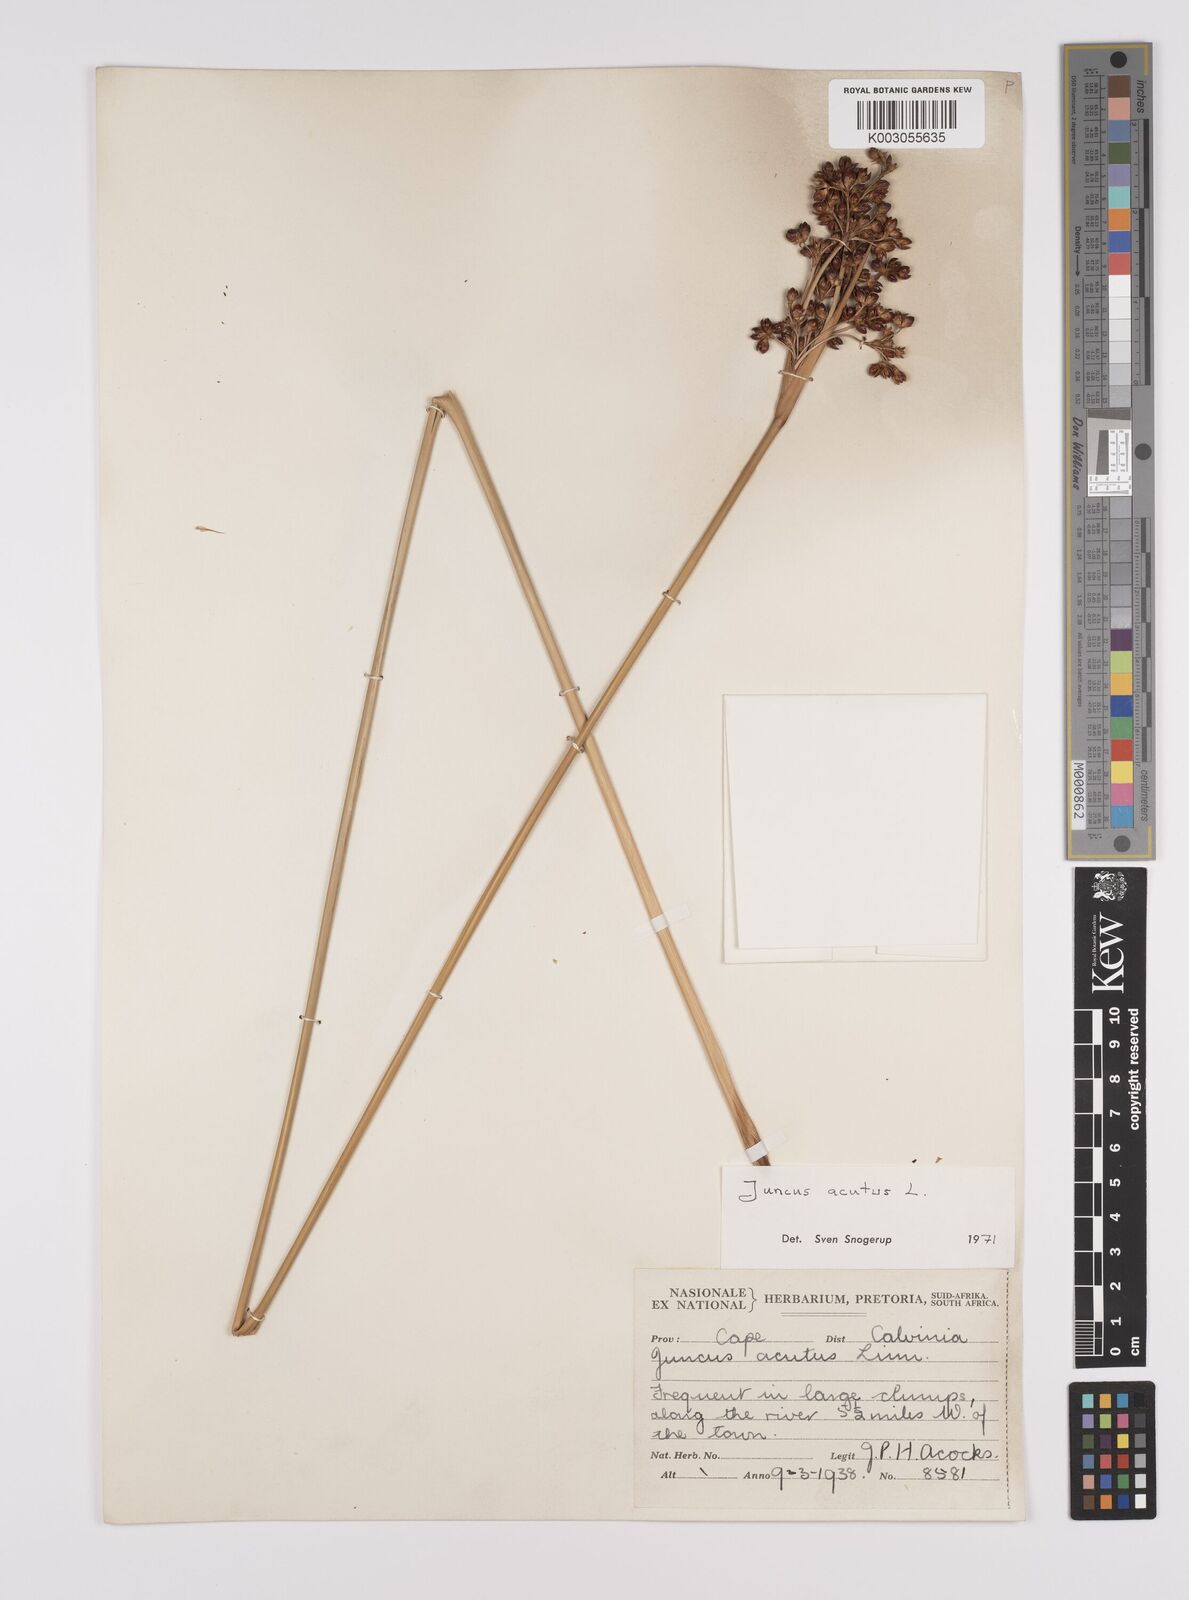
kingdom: Plantae
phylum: Tracheophyta
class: Liliopsida
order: Poales
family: Juncaceae
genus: Juncus
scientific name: Juncus acutus
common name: Sharp rush
